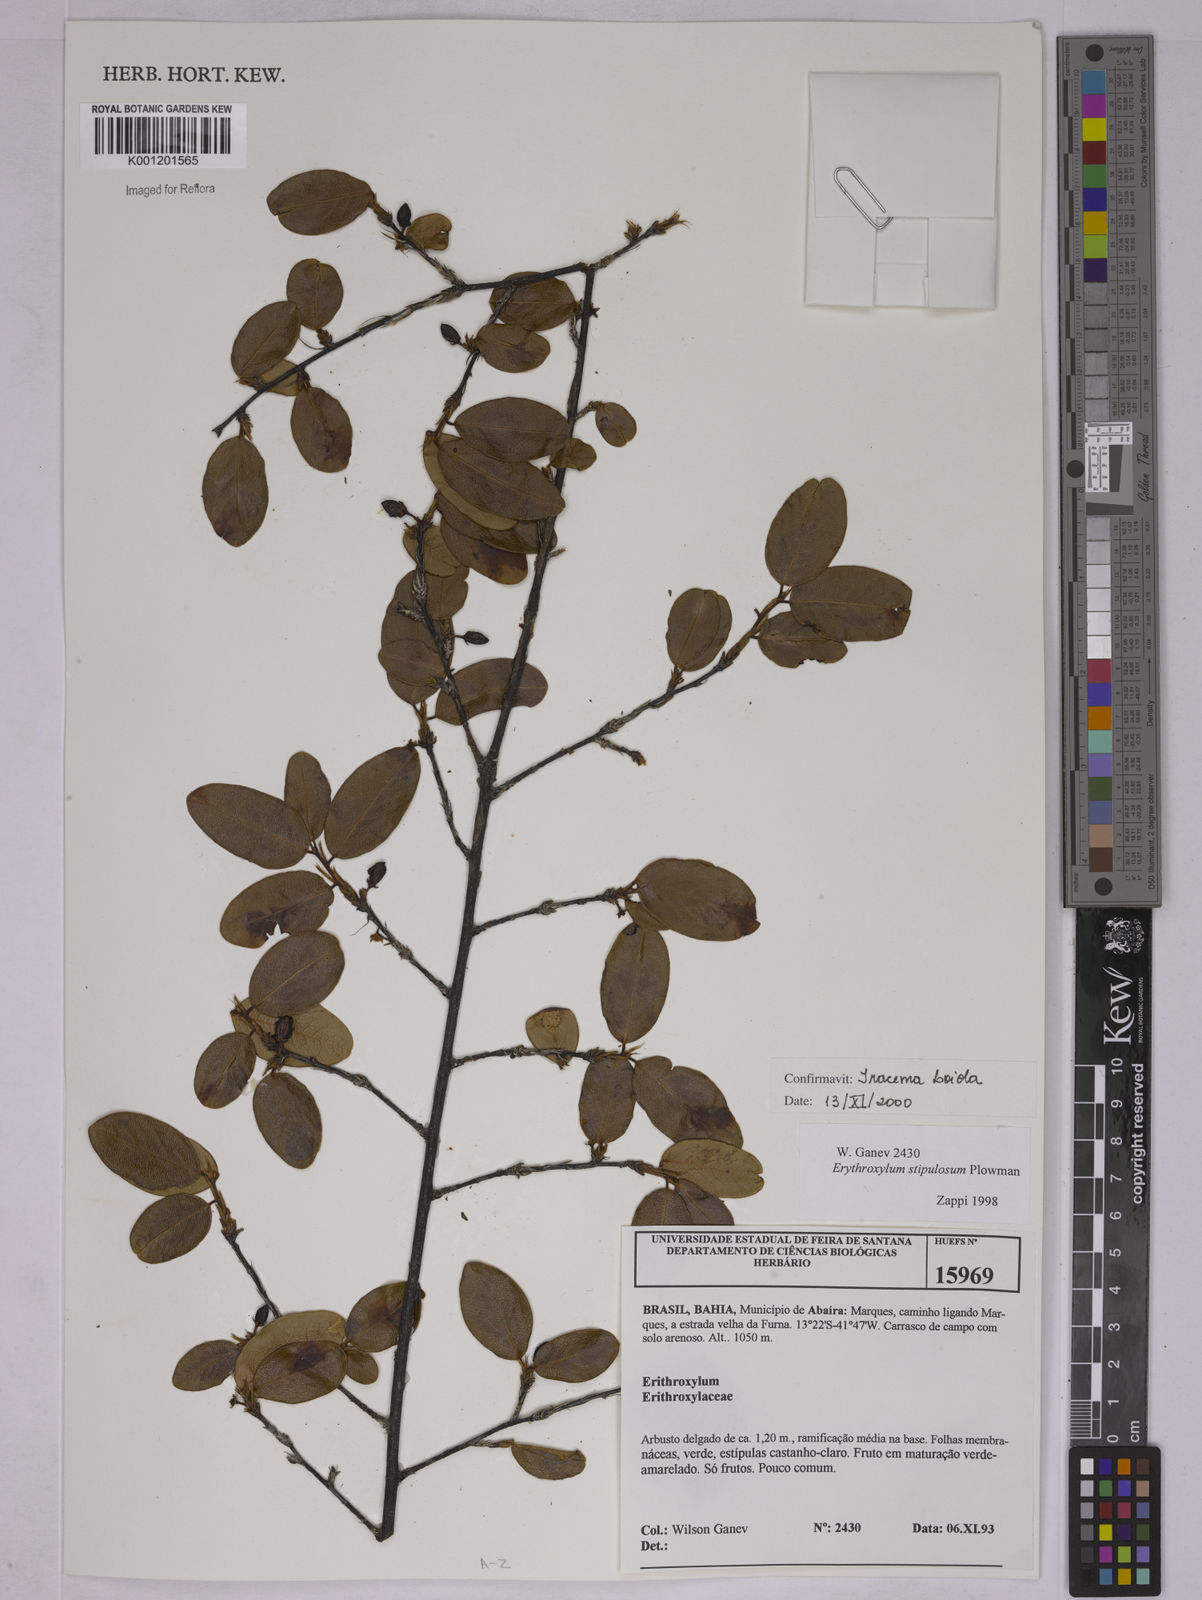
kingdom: Plantae
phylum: Tracheophyta
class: Magnoliopsida
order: Malpighiales
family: Erythroxylaceae
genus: Erythroxylum
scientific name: Erythroxylum stipulosum
